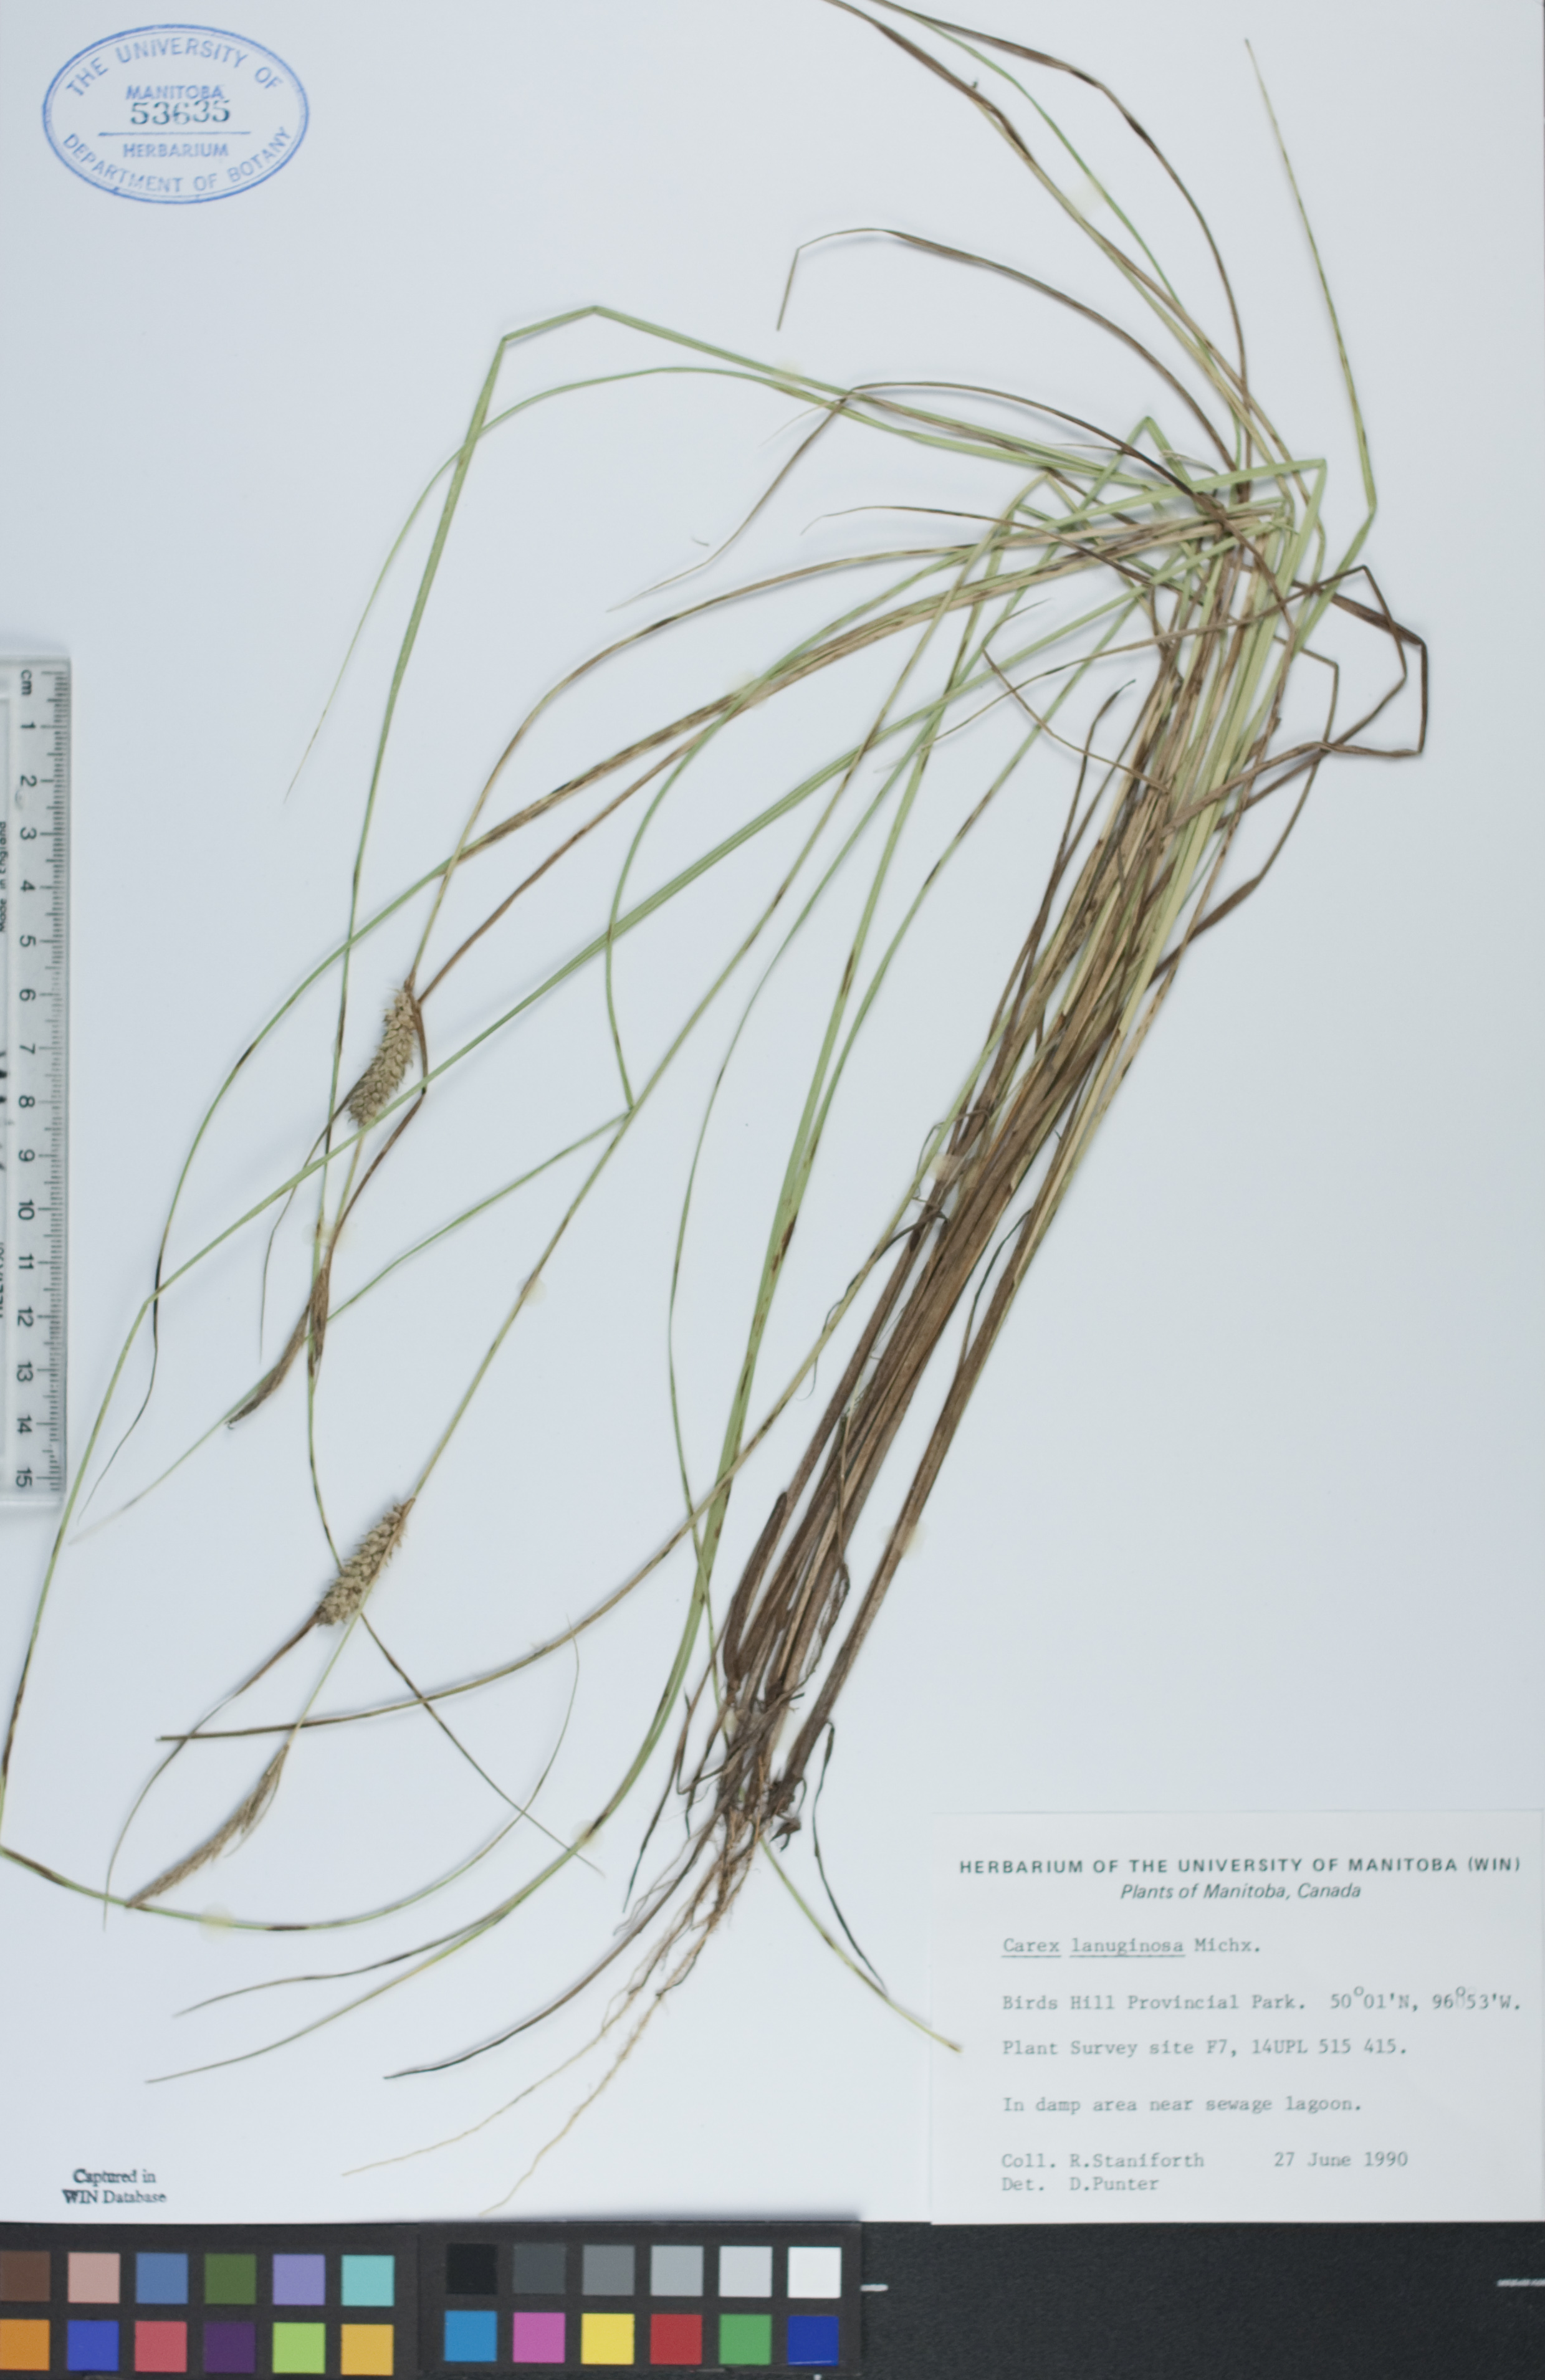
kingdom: Plantae
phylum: Tracheophyta
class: Liliopsida
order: Poales
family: Cyperaceae
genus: Carex
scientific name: Carex lasiocarpa
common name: Slender sedge
